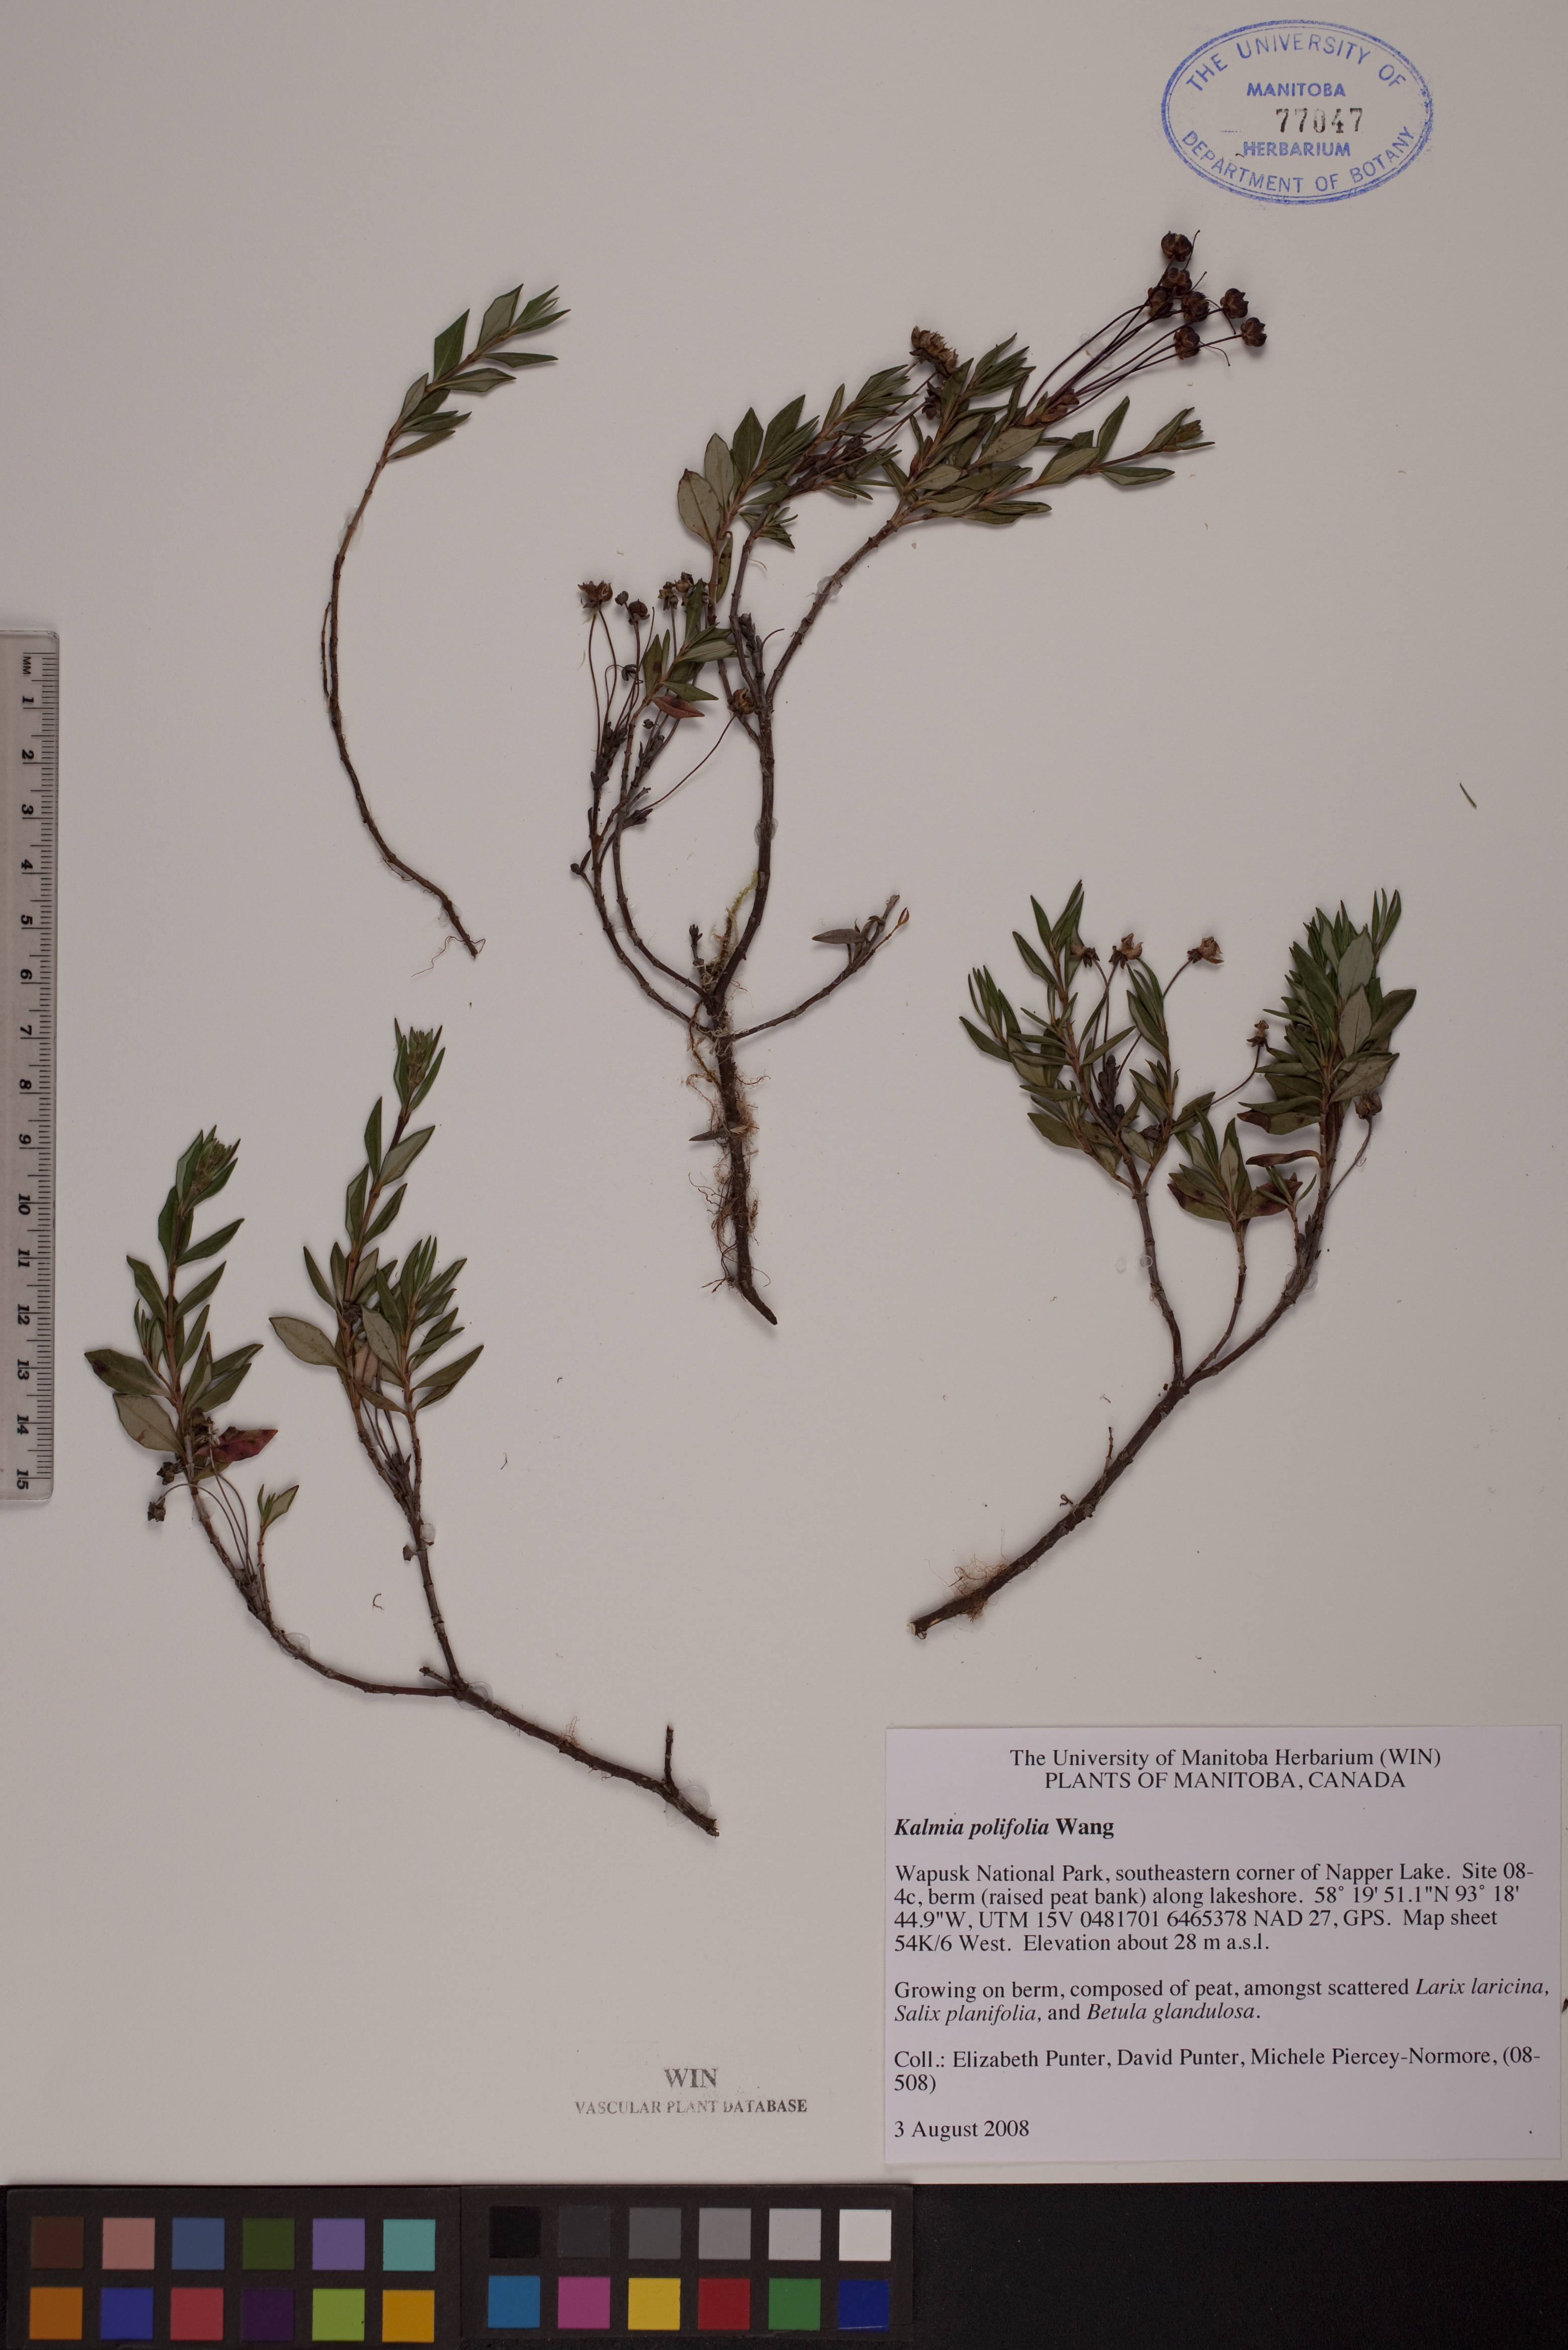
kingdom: Plantae
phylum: Tracheophyta
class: Magnoliopsida
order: Ericales
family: Ericaceae
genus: Kalmia
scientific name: Kalmia polifolia
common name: Bog-laurel
